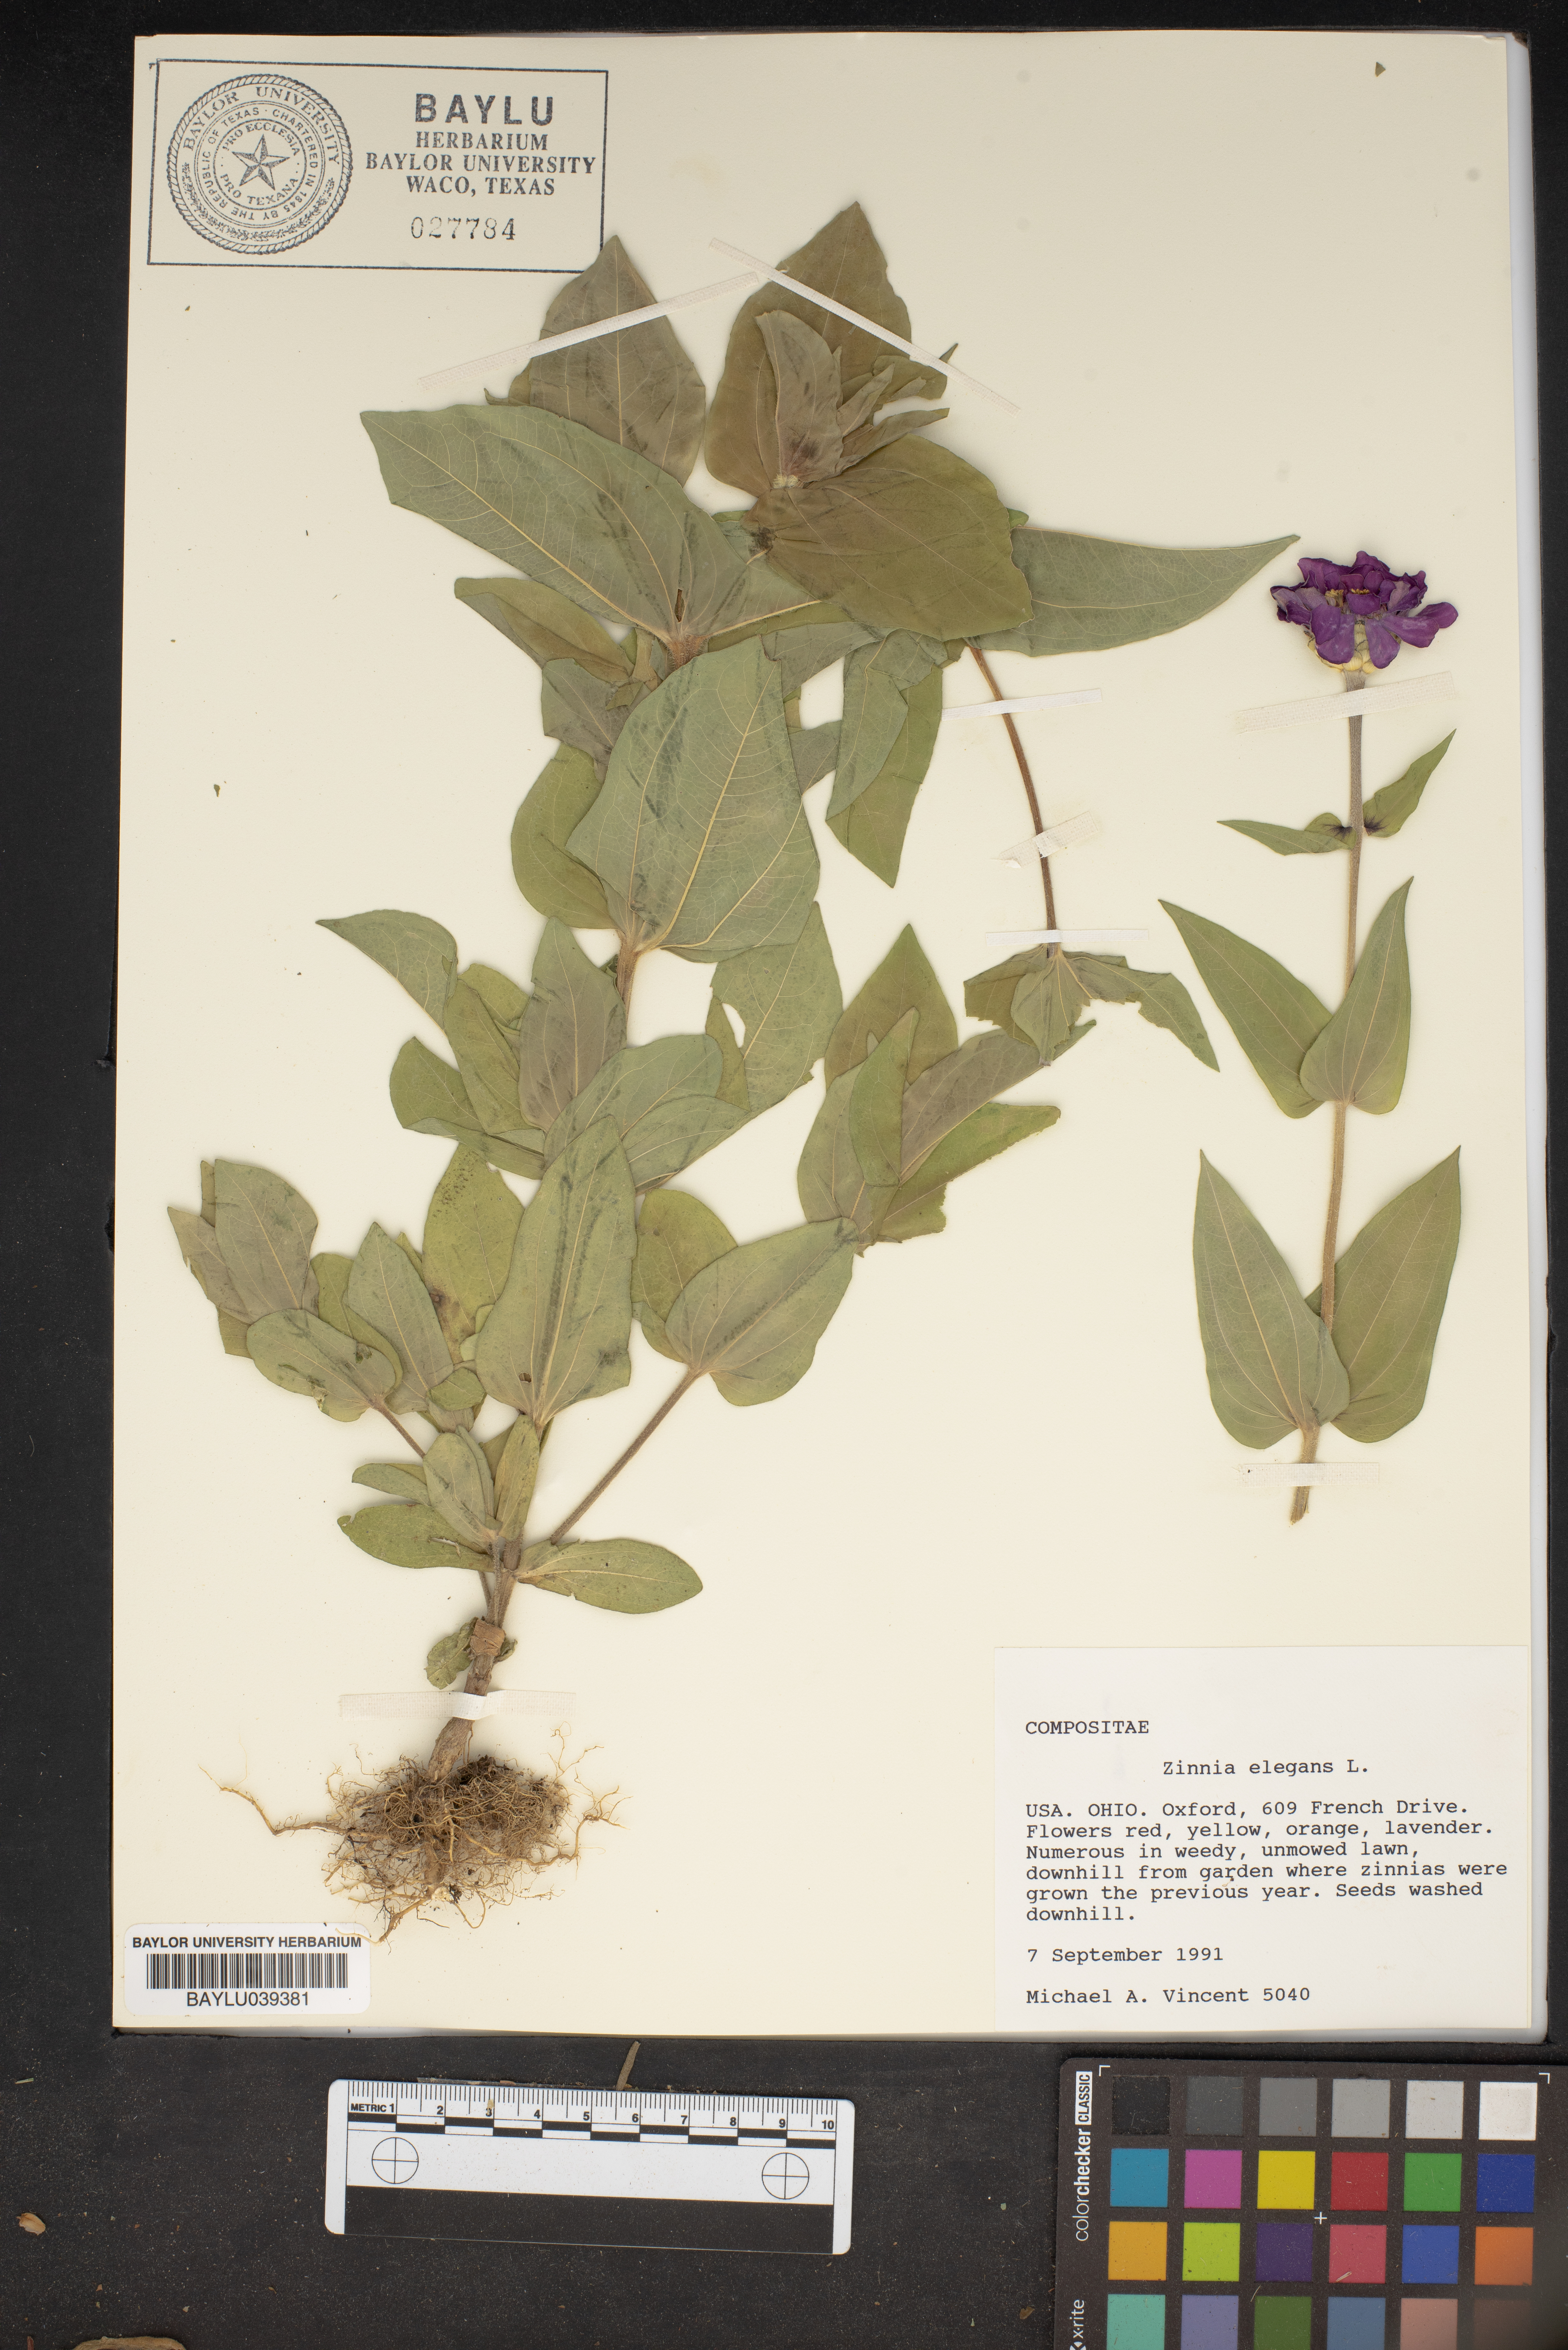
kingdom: Plantae
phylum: Tracheophyta
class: Magnoliopsida
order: Asterales
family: Asteraceae
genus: Zinnia
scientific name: Zinnia elegans
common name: Youth-and-age
